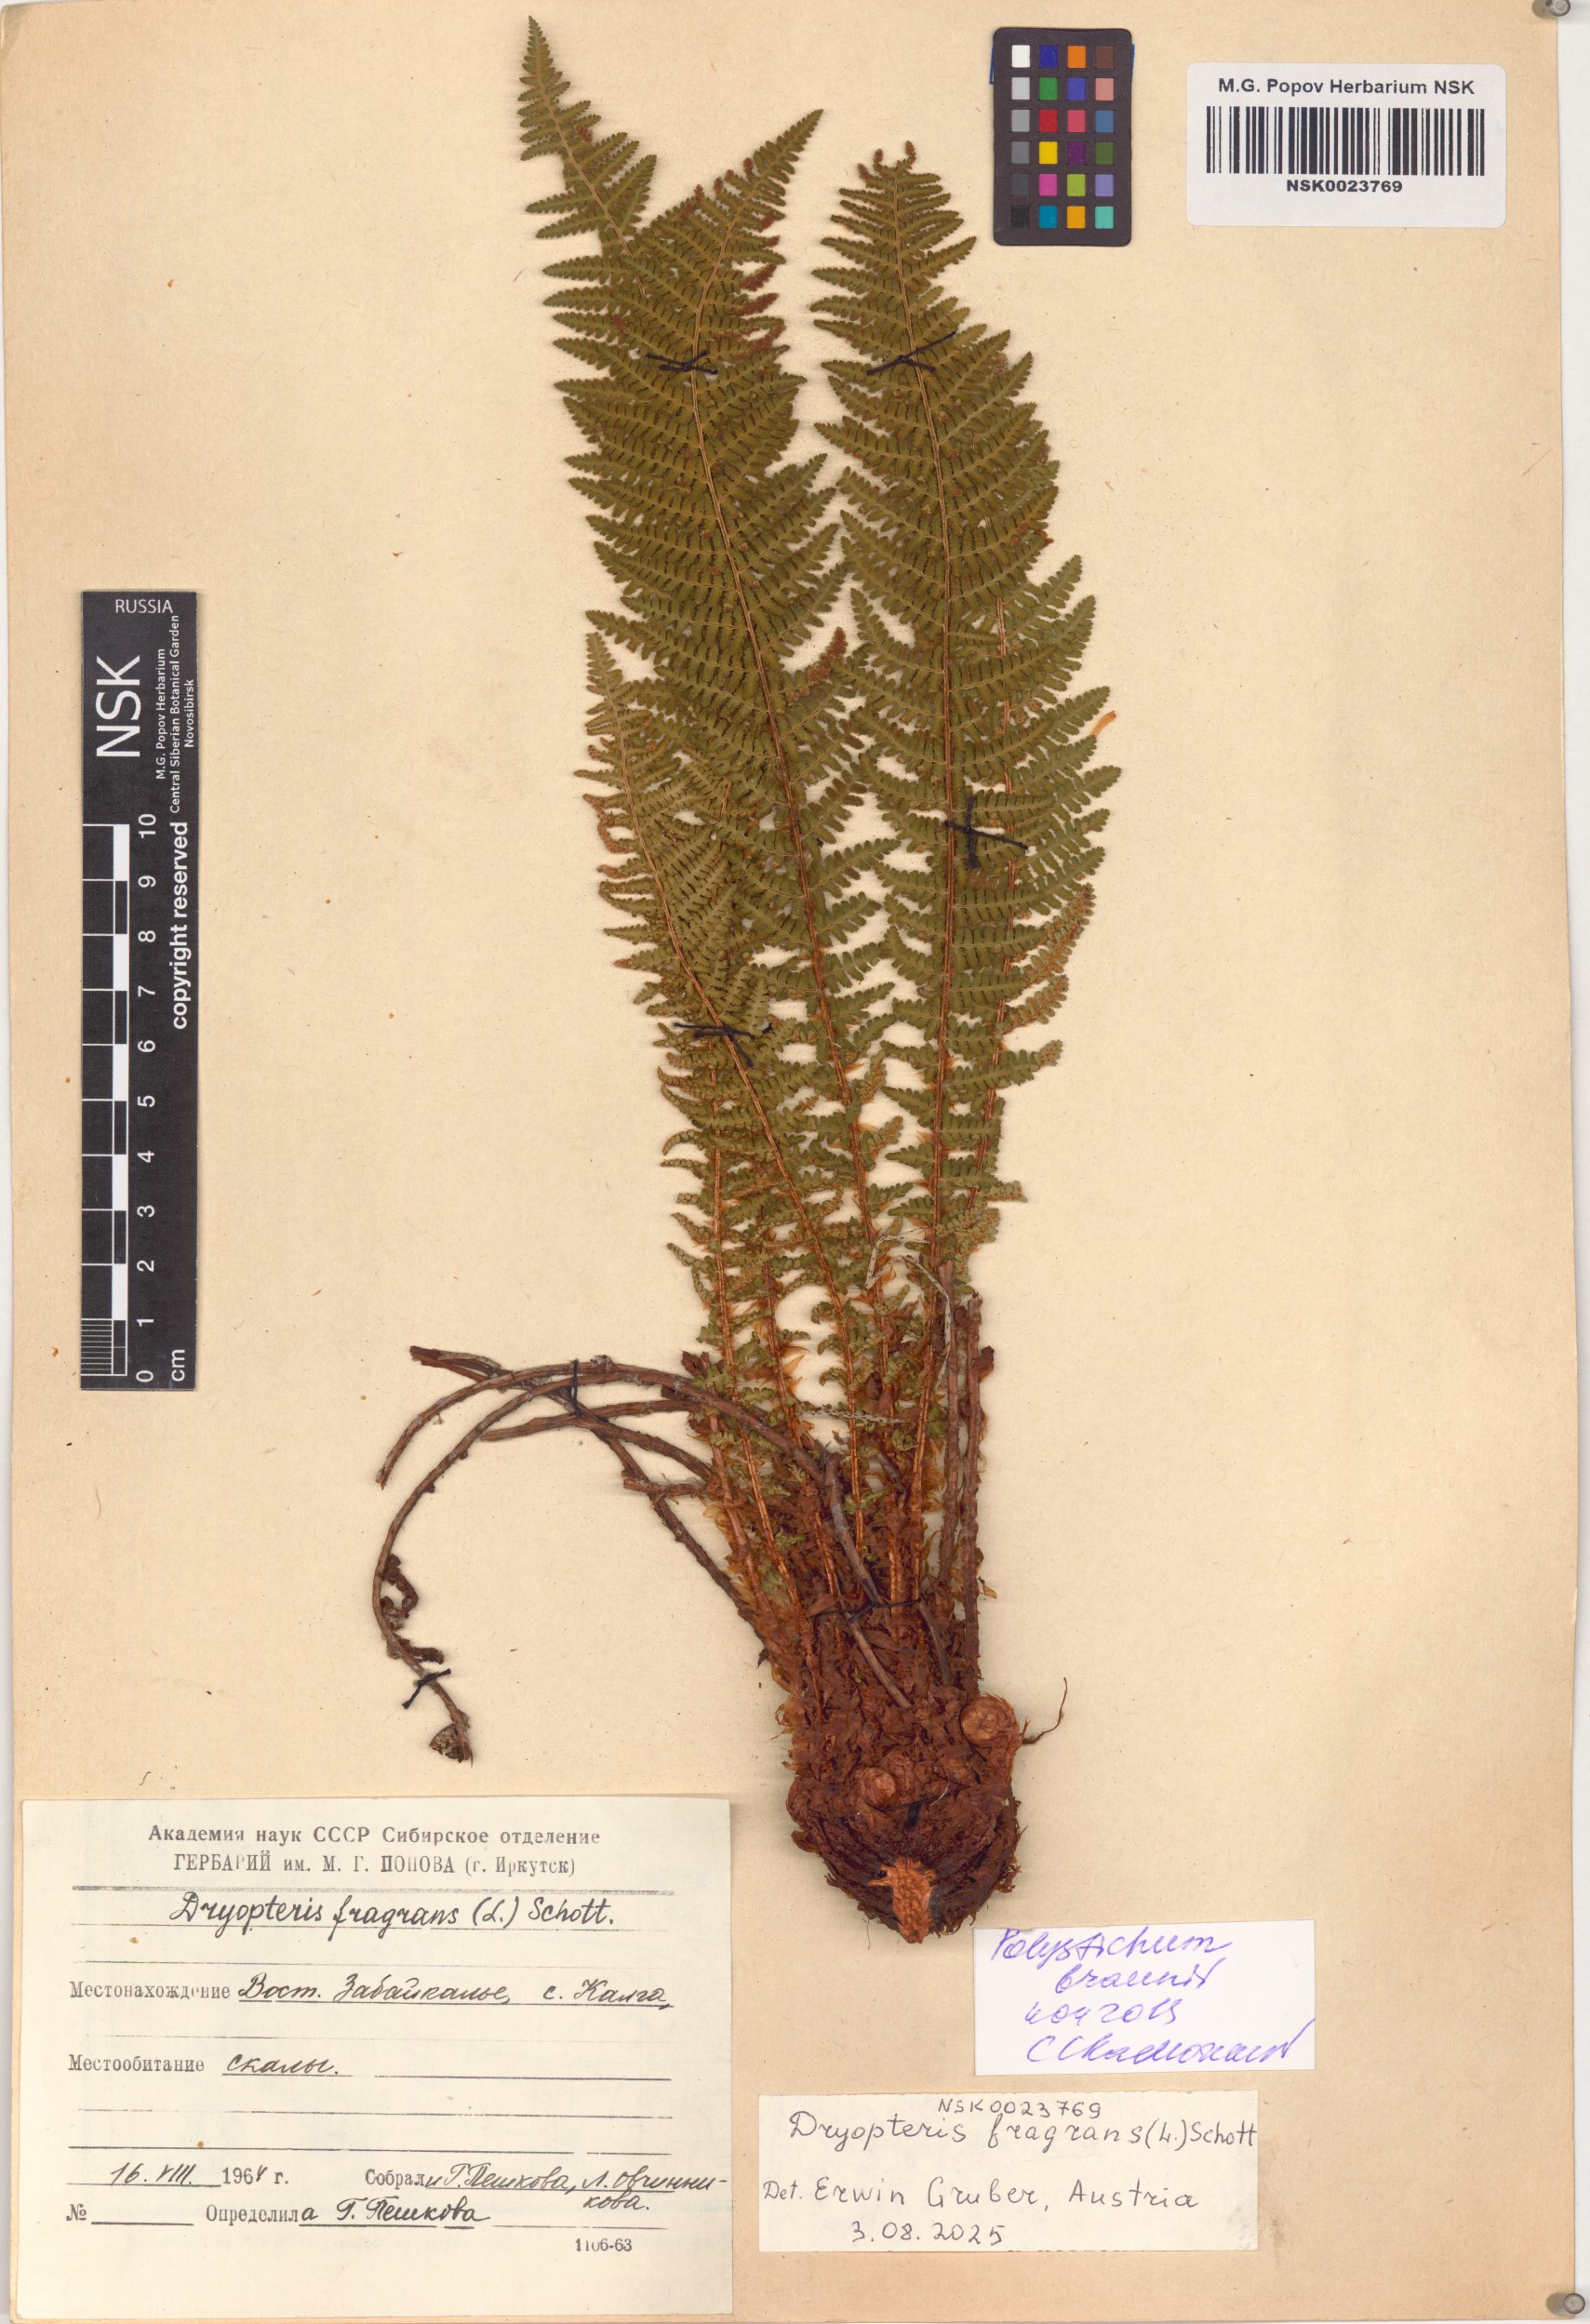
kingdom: Plantae
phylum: Tracheophyta
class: Polypodiopsida
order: Polypodiales
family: Dryopteridaceae
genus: Polystichum
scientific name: Polystichum braunii
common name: Braun's holly fern
